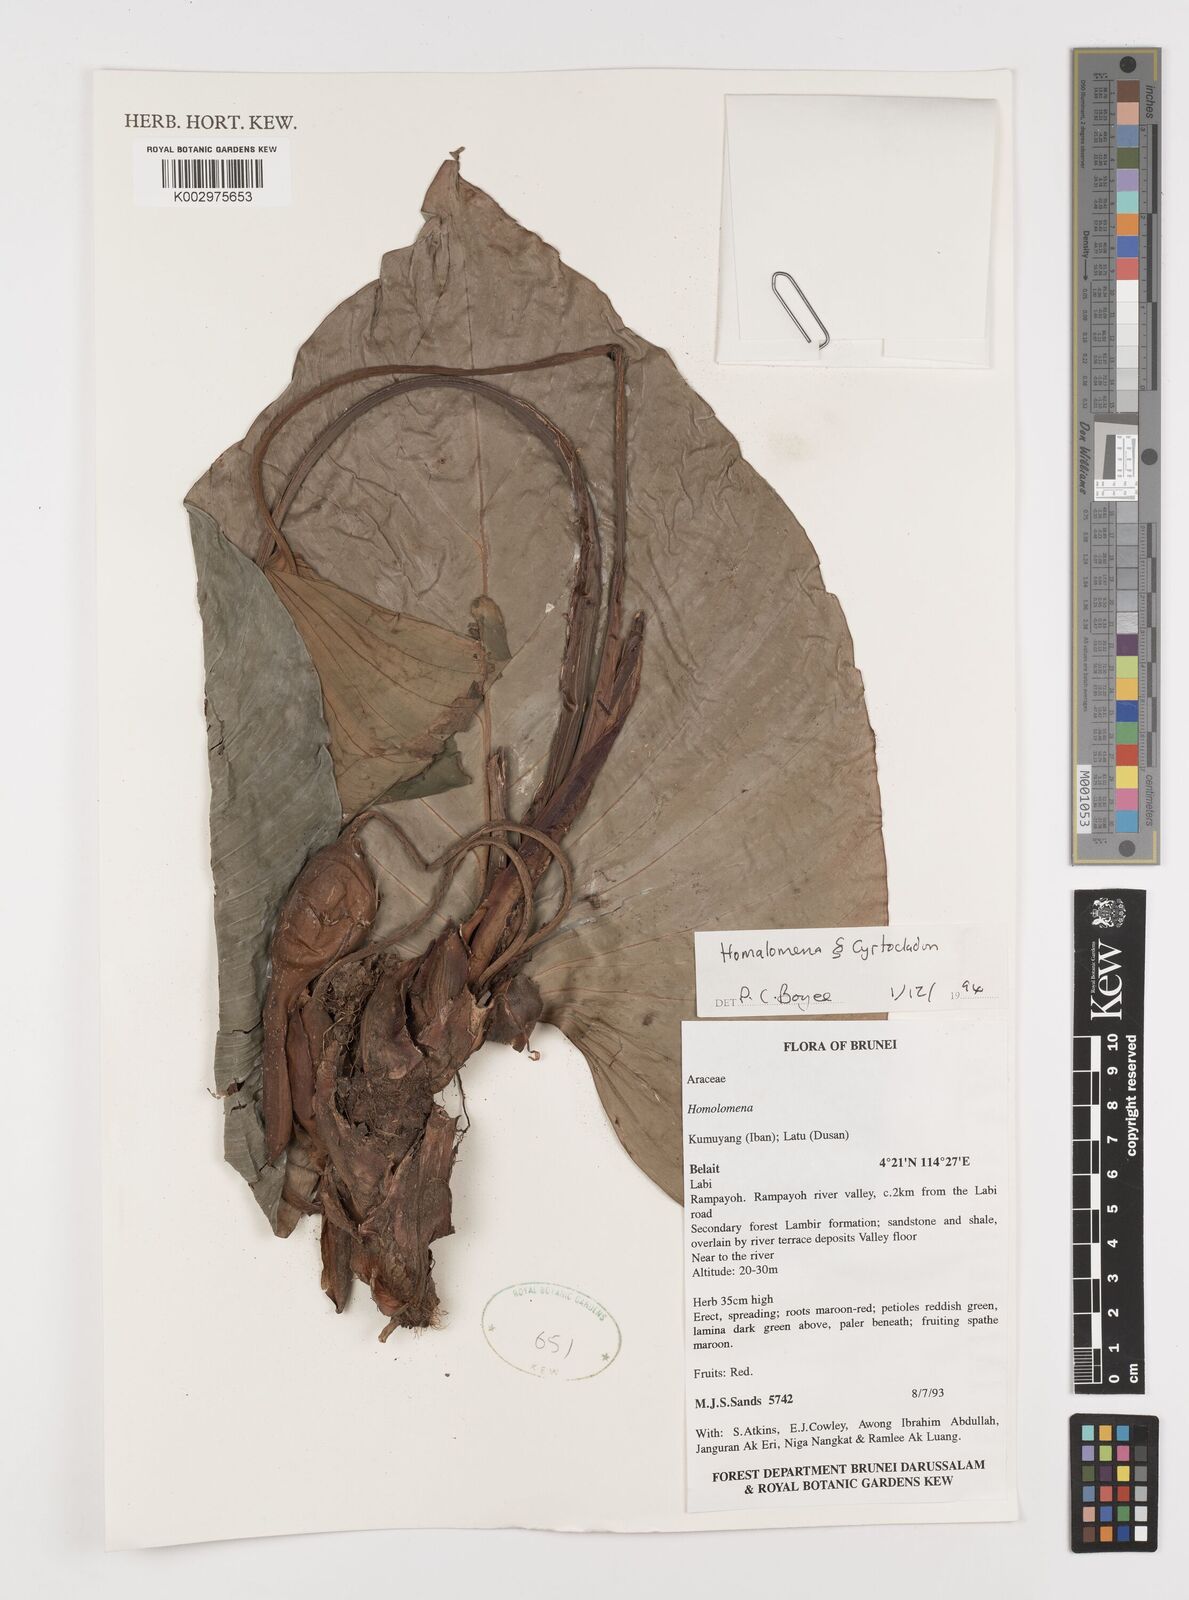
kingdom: Plantae
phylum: Tracheophyta
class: Liliopsida
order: Alismatales
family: Araceae
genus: Homalomena
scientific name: Homalomena
